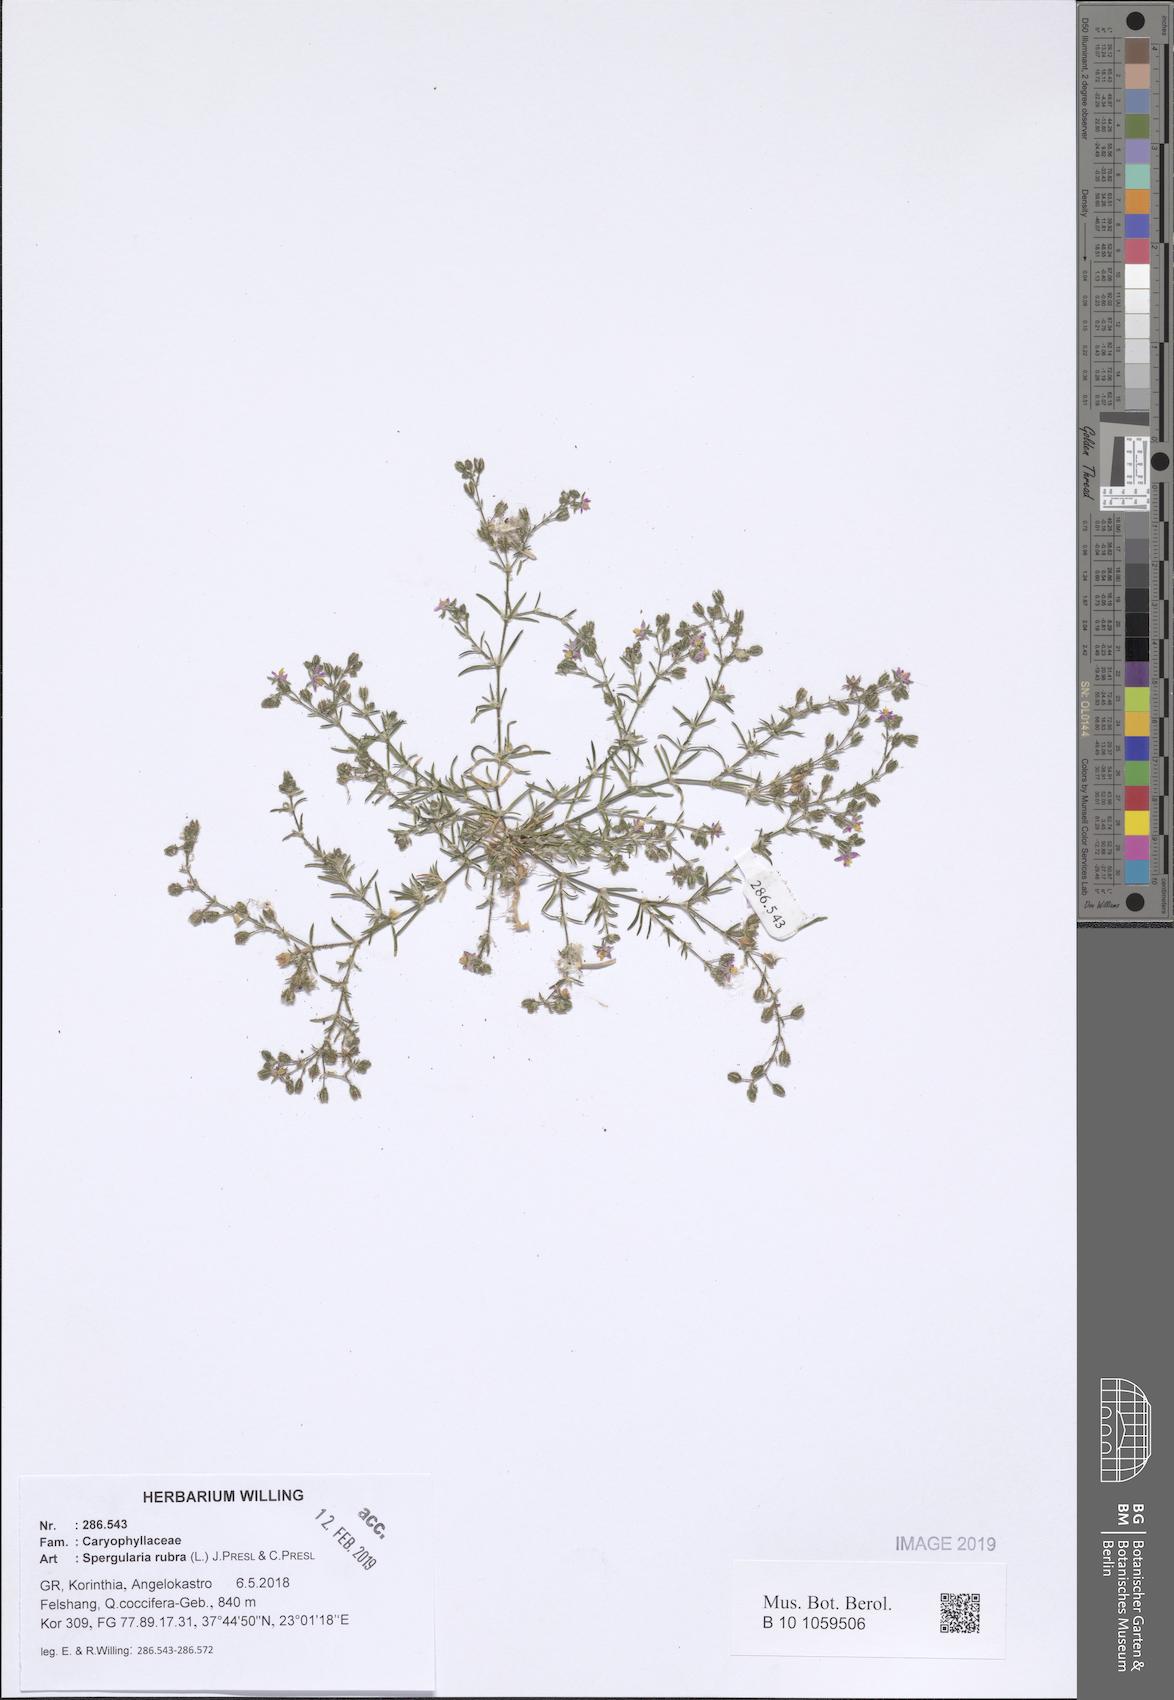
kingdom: Plantae
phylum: Tracheophyta
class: Magnoliopsida
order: Caryophyllales
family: Caryophyllaceae
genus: Spergularia
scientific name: Spergularia rubra
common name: Red sand-spurrey
